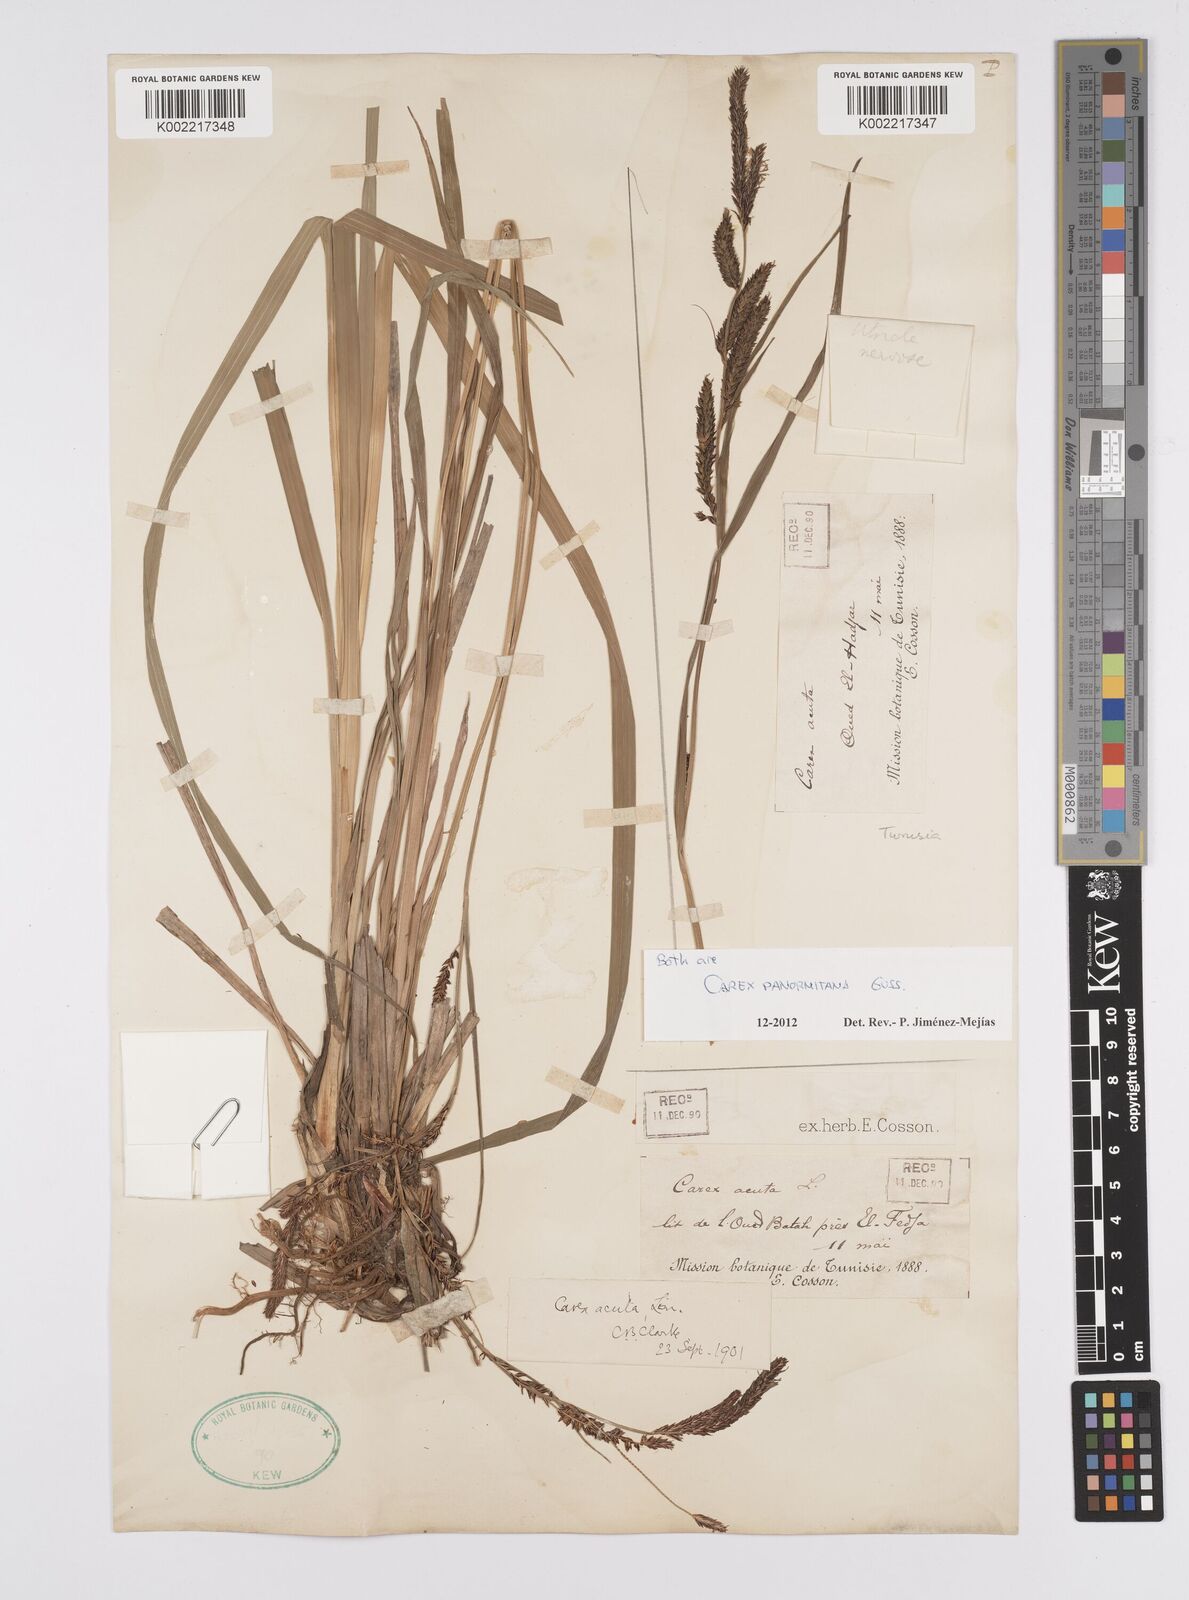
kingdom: Plantae
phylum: Tracheophyta
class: Liliopsida
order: Poales
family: Cyperaceae
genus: Carex
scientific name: Carex panormitana
